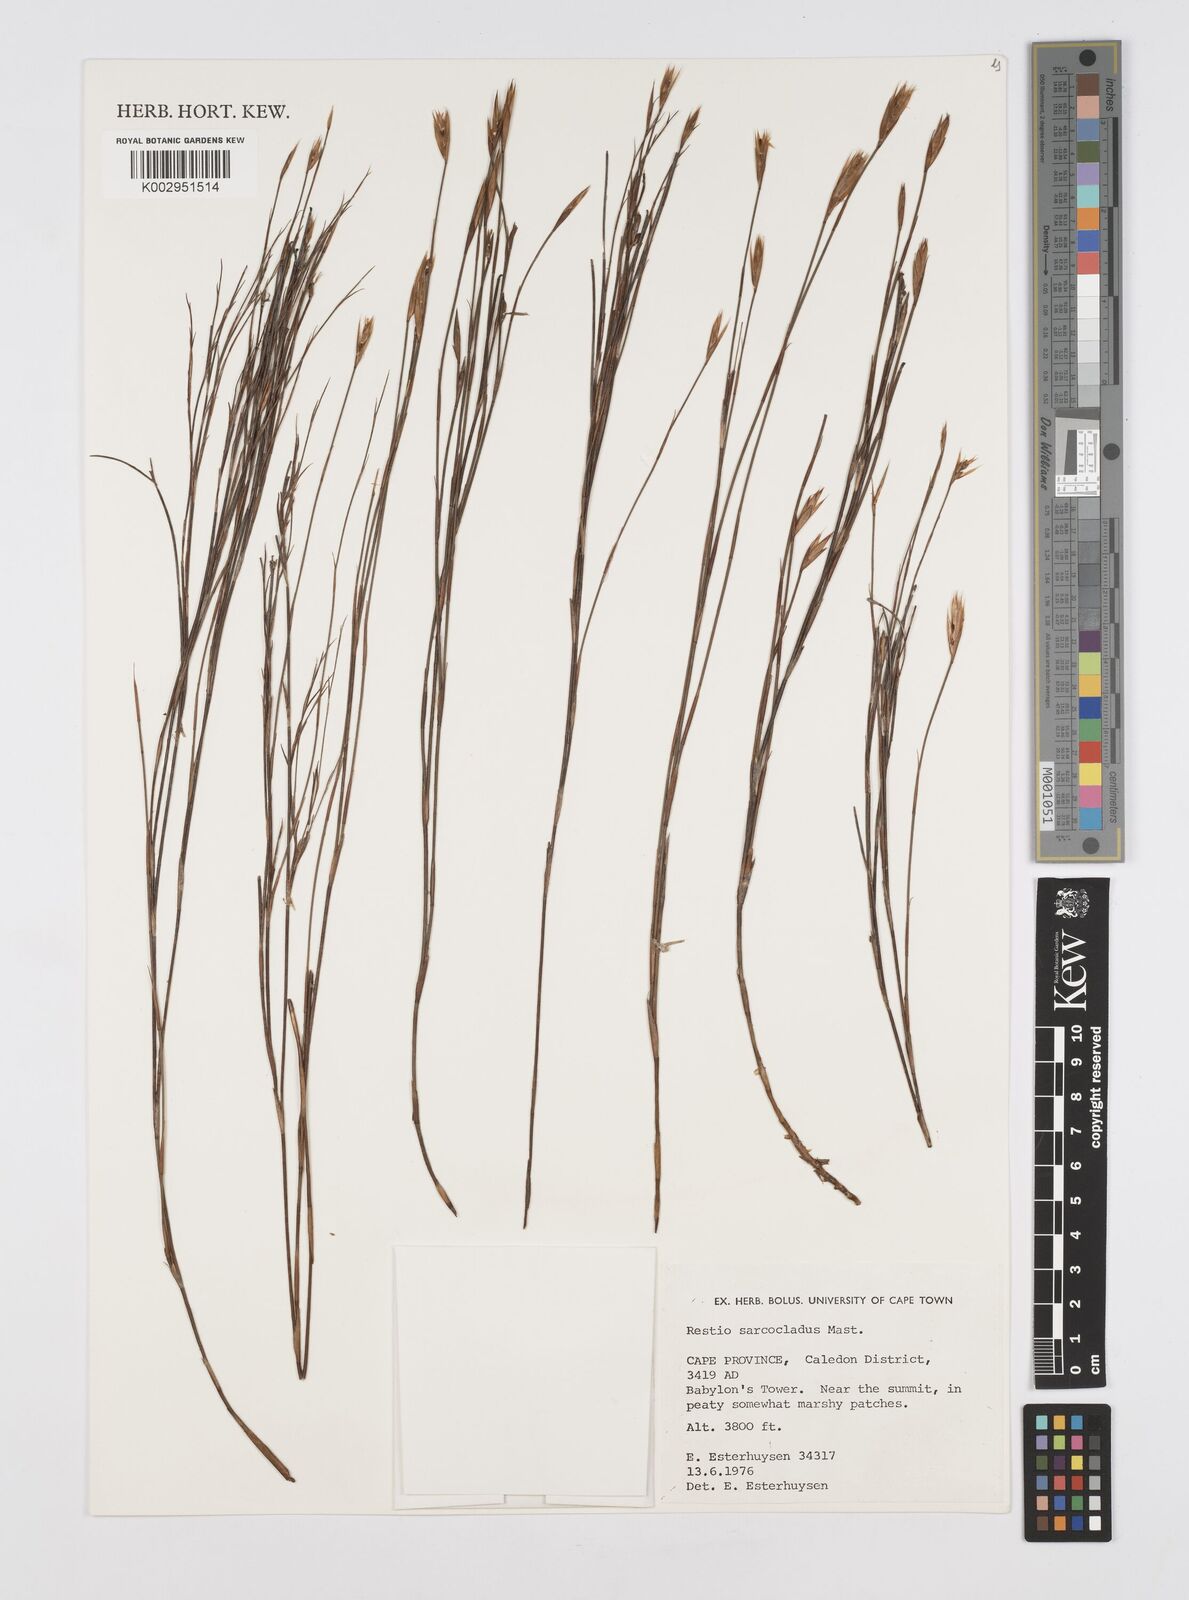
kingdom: Plantae
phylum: Tracheophyta
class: Liliopsida
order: Poales
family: Restionaceae
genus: Restio
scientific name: Restio saroclados
